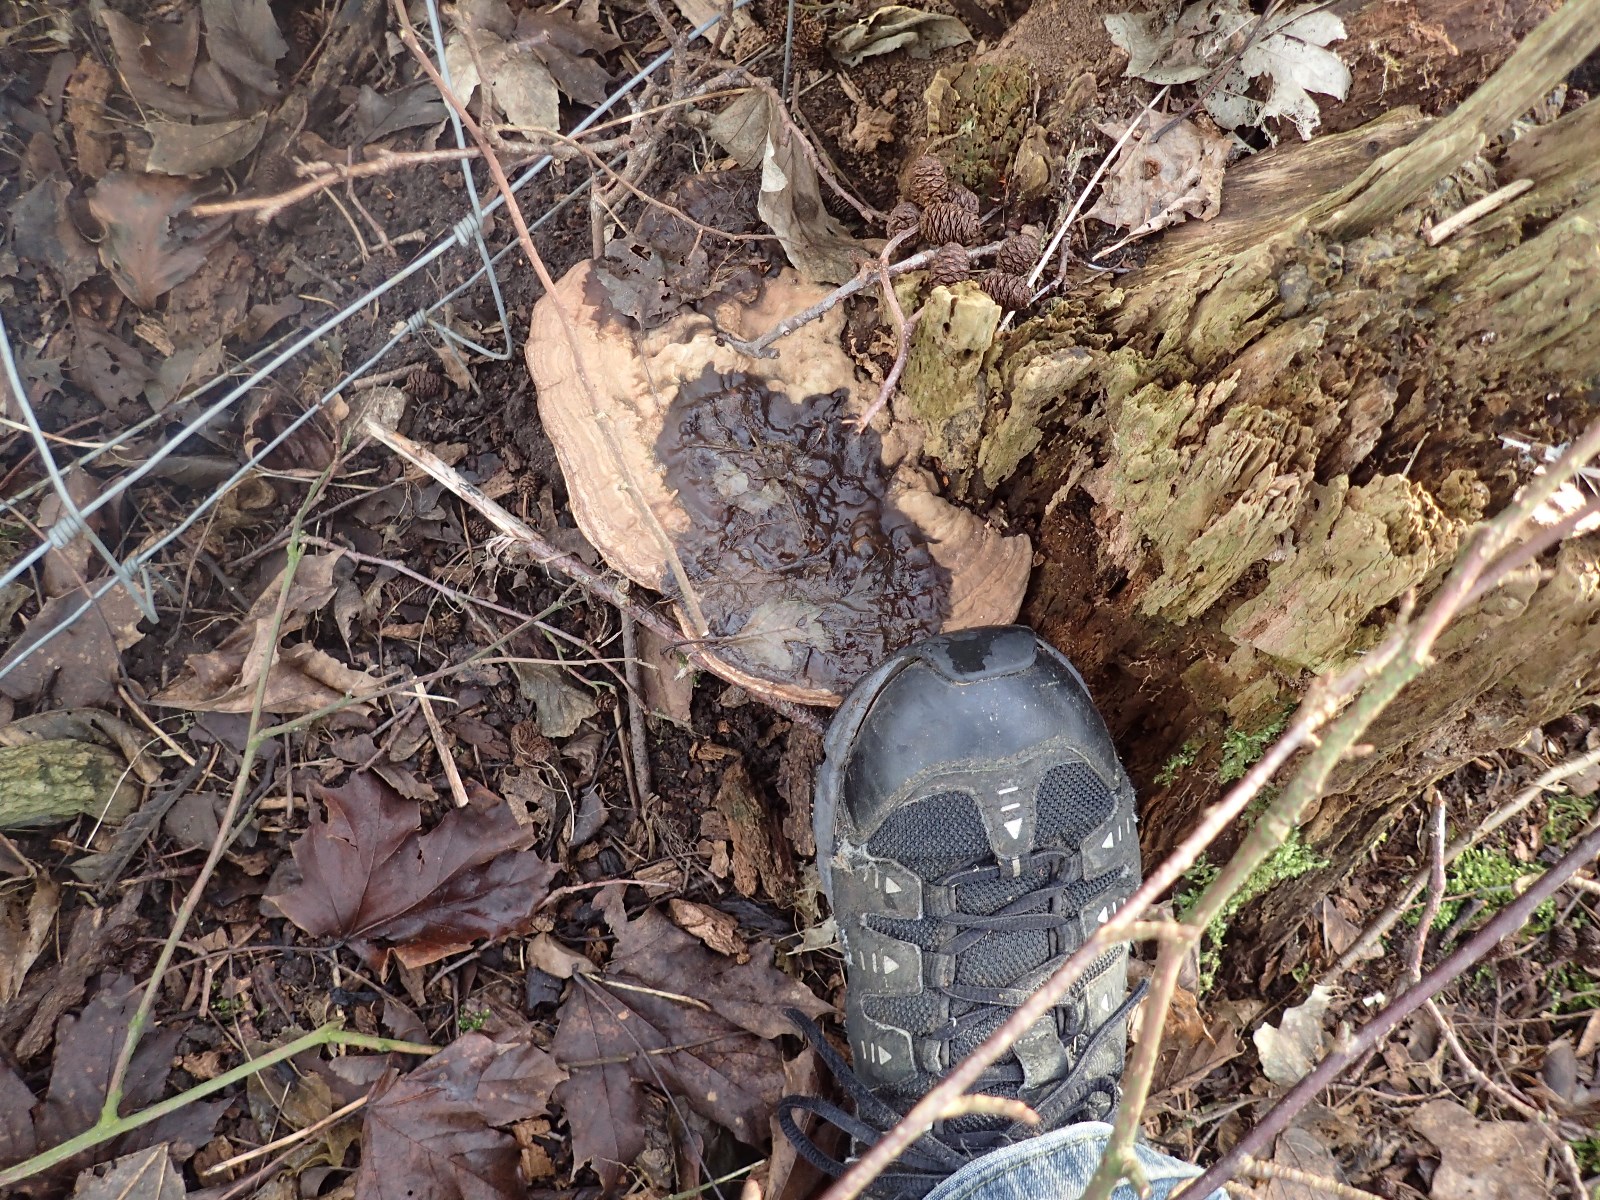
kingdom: Fungi
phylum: Basidiomycota
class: Agaricomycetes
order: Polyporales
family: Polyporaceae
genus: Ganoderma
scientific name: Ganoderma applanatum
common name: flad lakporesvamp
